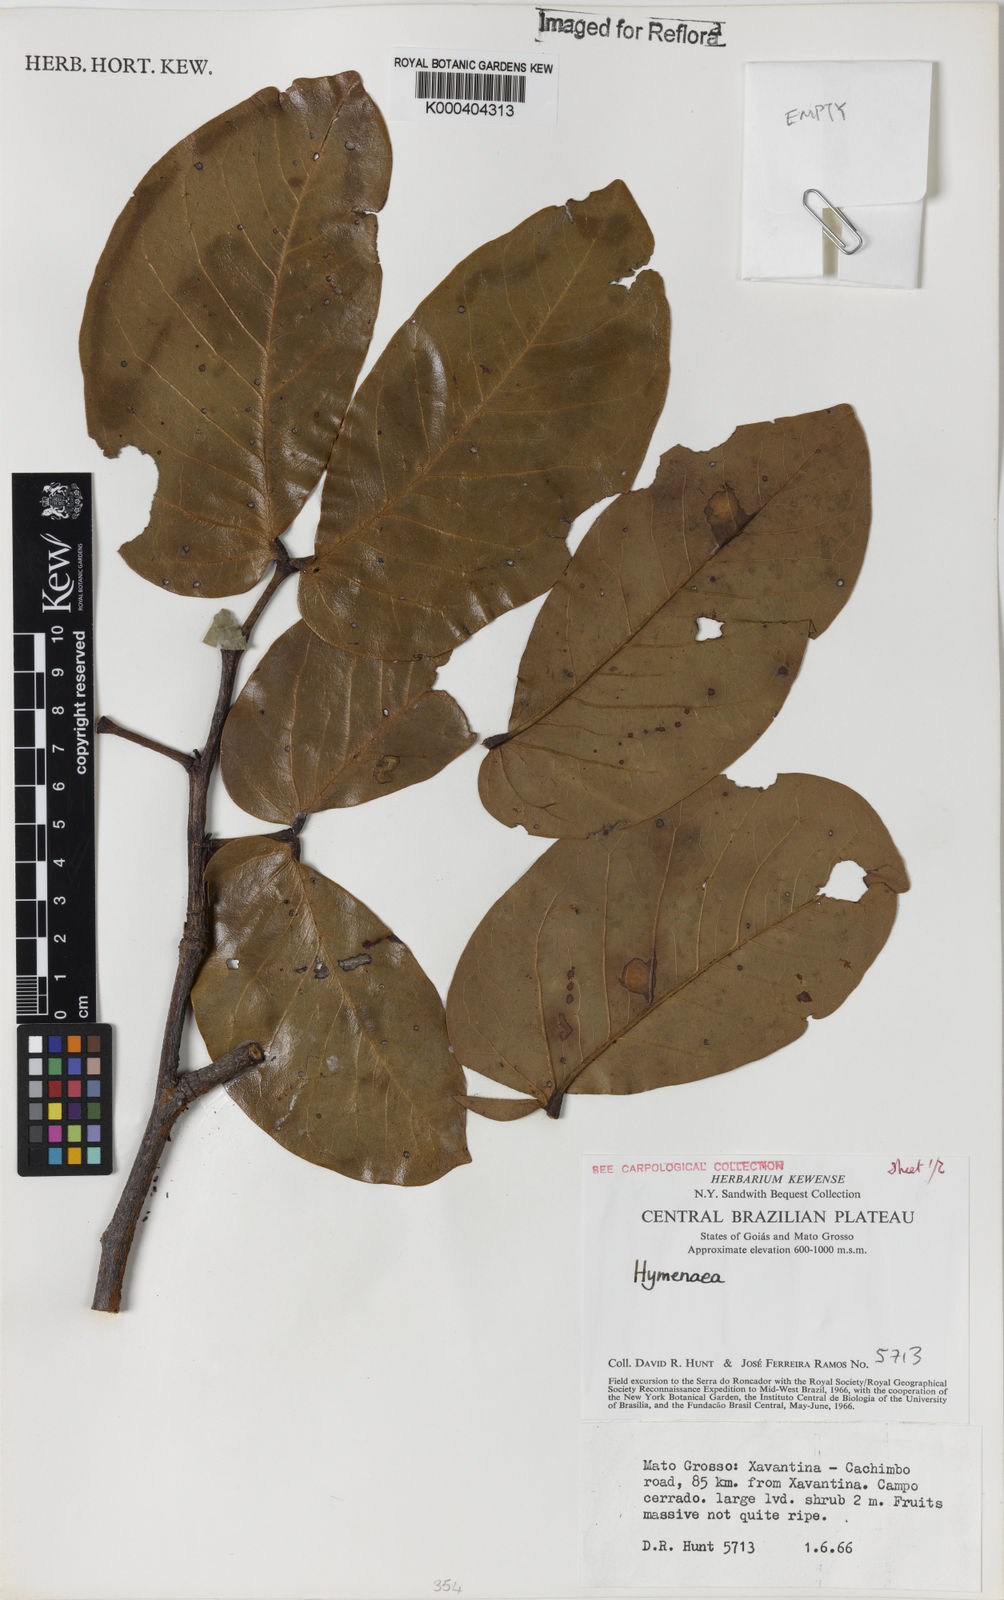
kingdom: Plantae
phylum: Tracheophyta
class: Magnoliopsida
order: Fabales
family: Fabaceae
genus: Hymenaea
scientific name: Hymenaea
